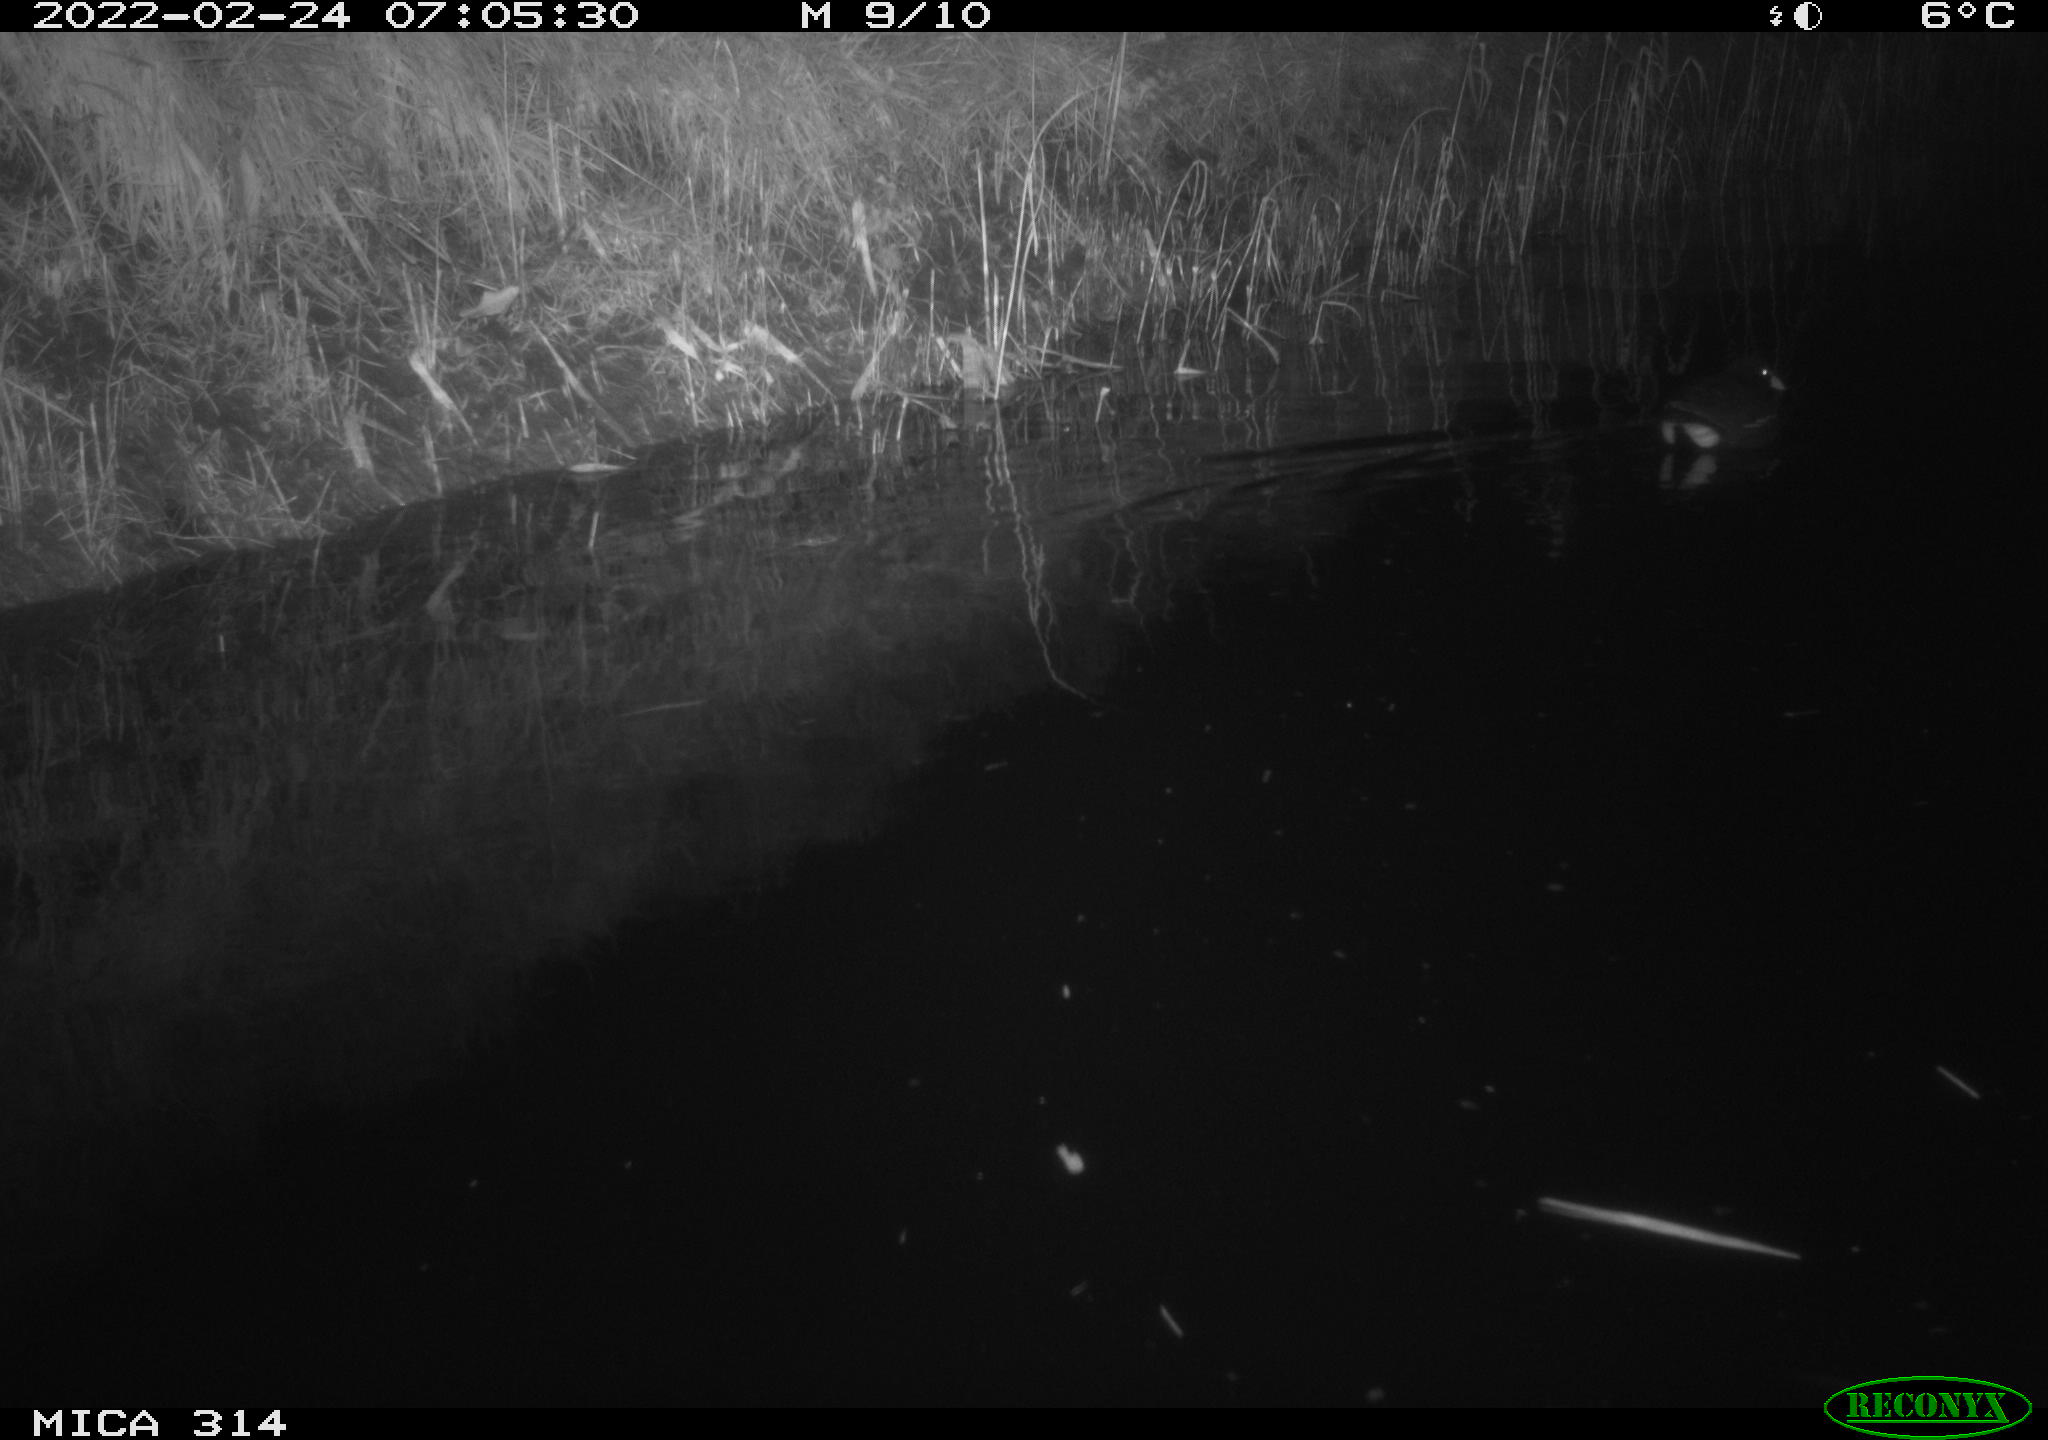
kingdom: Animalia
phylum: Chordata
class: Aves
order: Gruiformes
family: Rallidae
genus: Gallinula
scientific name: Gallinula chloropus
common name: Common moorhen
